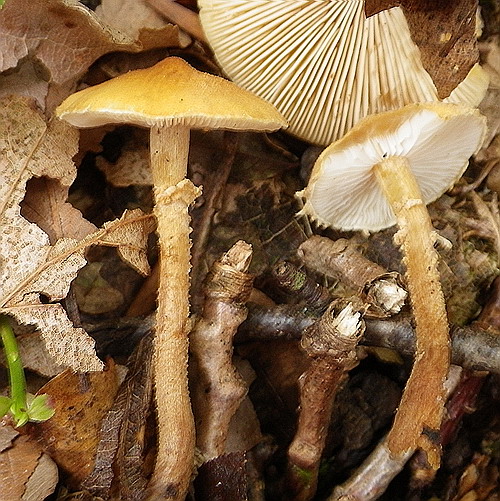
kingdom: Fungi
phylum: Basidiomycota
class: Agaricomycetes
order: Agaricales
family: Tricholomataceae
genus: Cystoderma
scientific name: Cystoderma amianthinum
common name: okkergul grynhat
